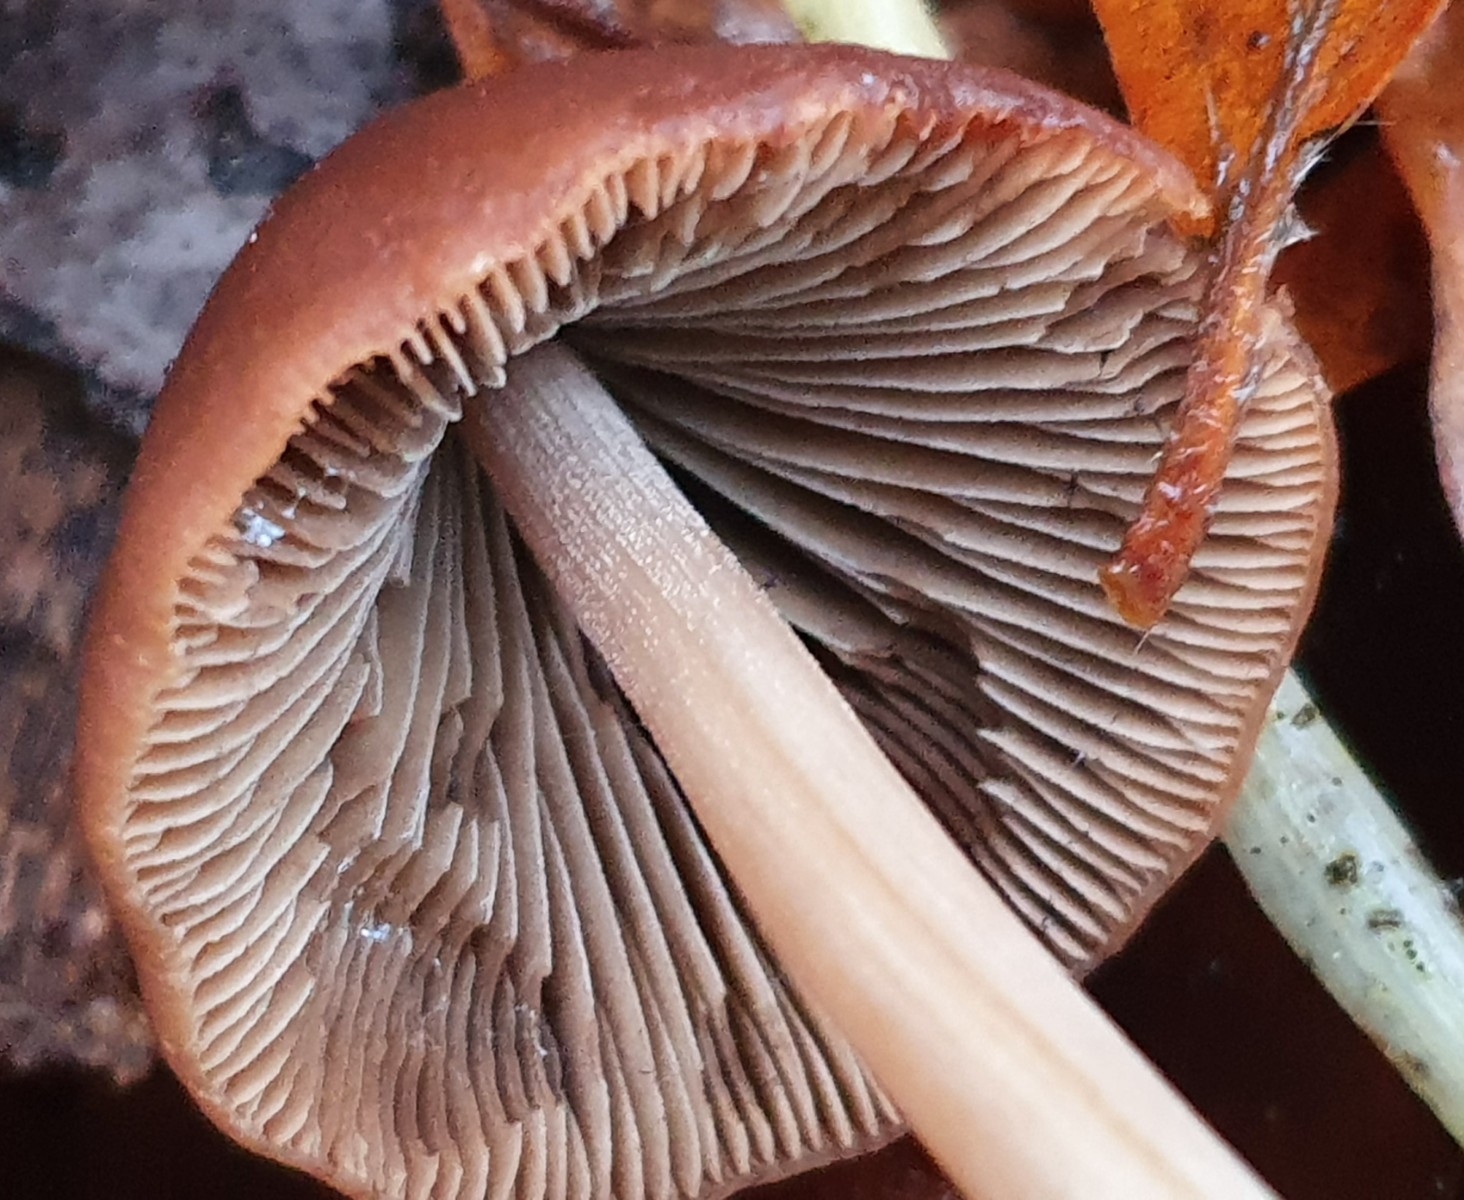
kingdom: Fungi
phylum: Basidiomycota
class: Agaricomycetes
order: Agaricales
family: Psathyrellaceae
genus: Parasola
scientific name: Parasola conopilea
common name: kegle-hjulhat
